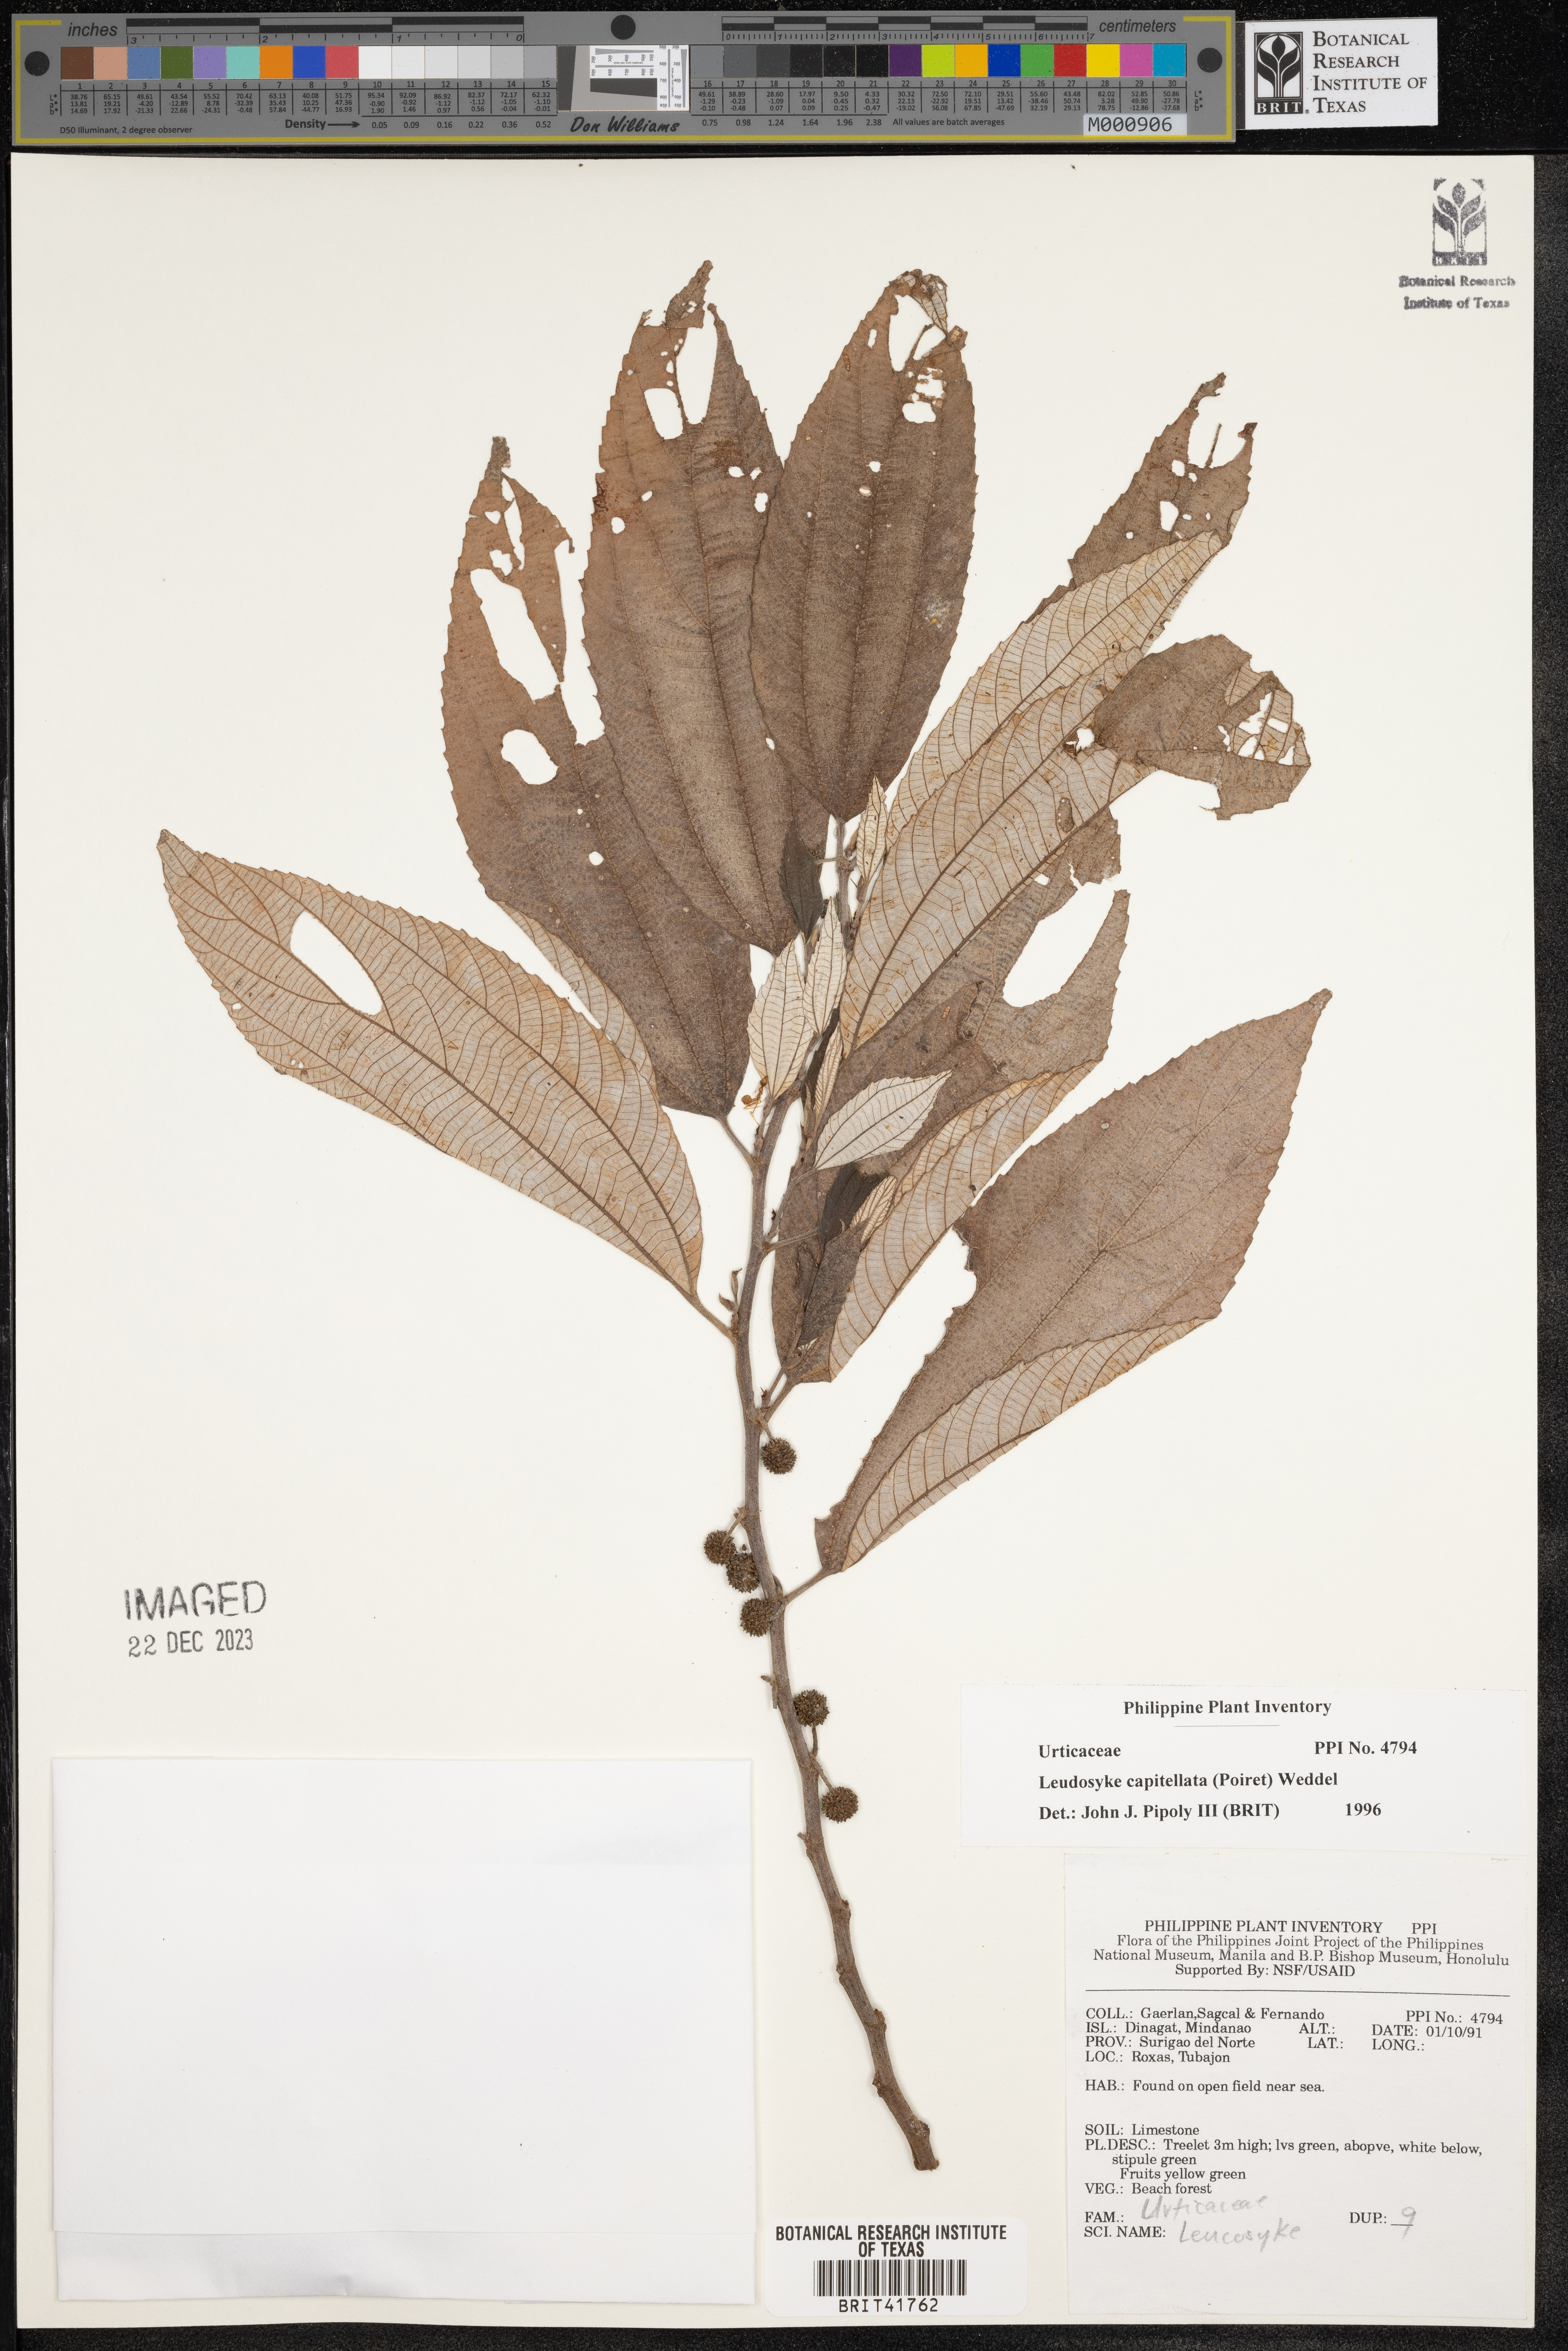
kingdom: Plantae
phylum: Tracheophyta
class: Magnoliopsida
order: Rosales
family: Urticaceae
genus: Leucosyke
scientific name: Leucosyke capitellata
